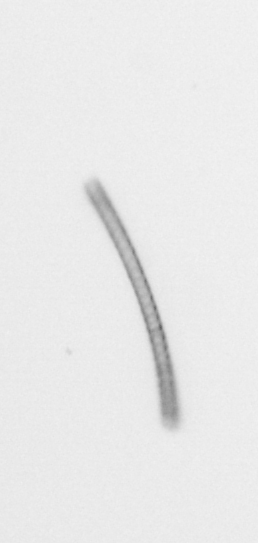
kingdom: Chromista
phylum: Ochrophyta
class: Bacillariophyceae
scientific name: Bacillariophyceae
